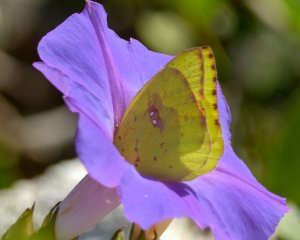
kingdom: Animalia
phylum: Arthropoda
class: Insecta
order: Lepidoptera
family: Pieridae
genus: Phoebis
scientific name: Phoebis sennae
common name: Cloudless Sulphur
